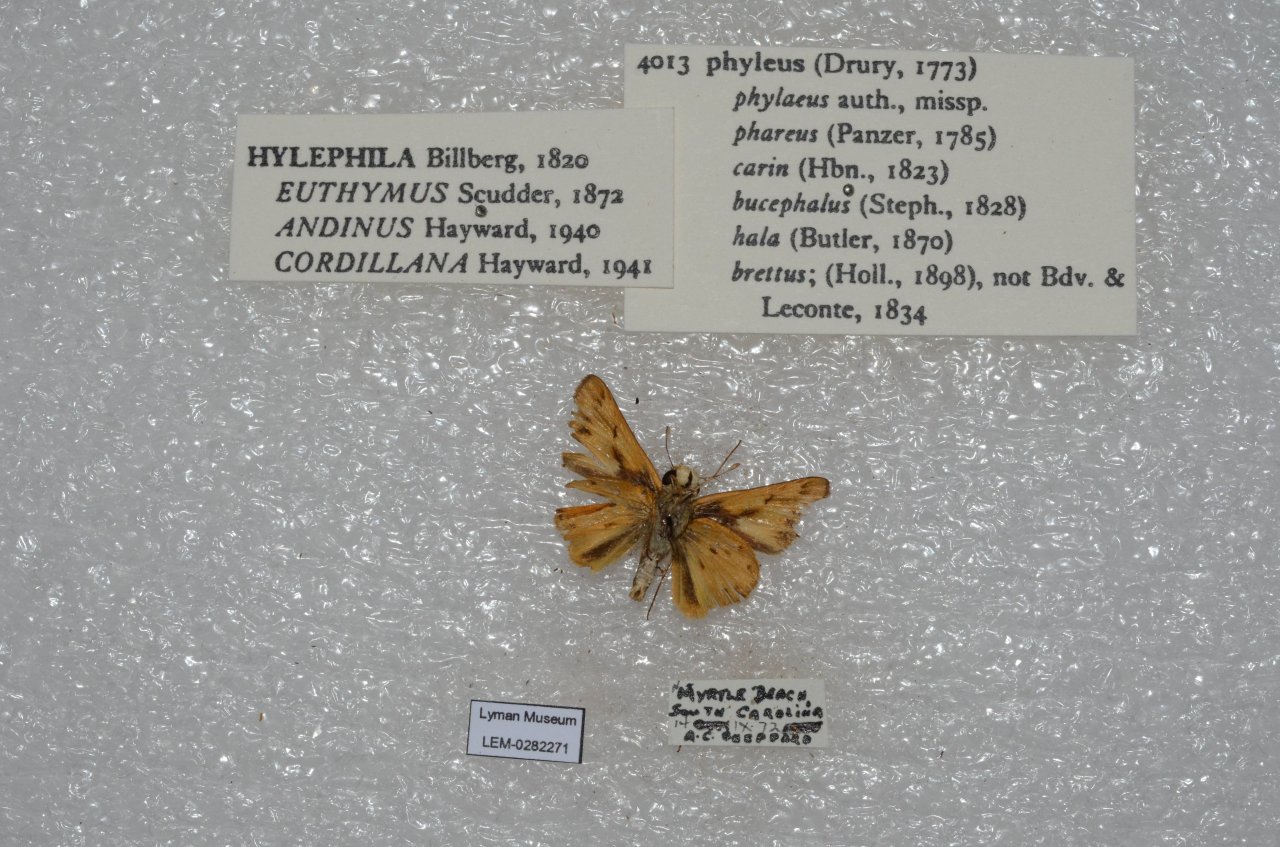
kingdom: Animalia
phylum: Arthropoda
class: Insecta
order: Lepidoptera
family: Hesperiidae
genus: Hylephila
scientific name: Hylephila phyleus
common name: Fiery Skipper
